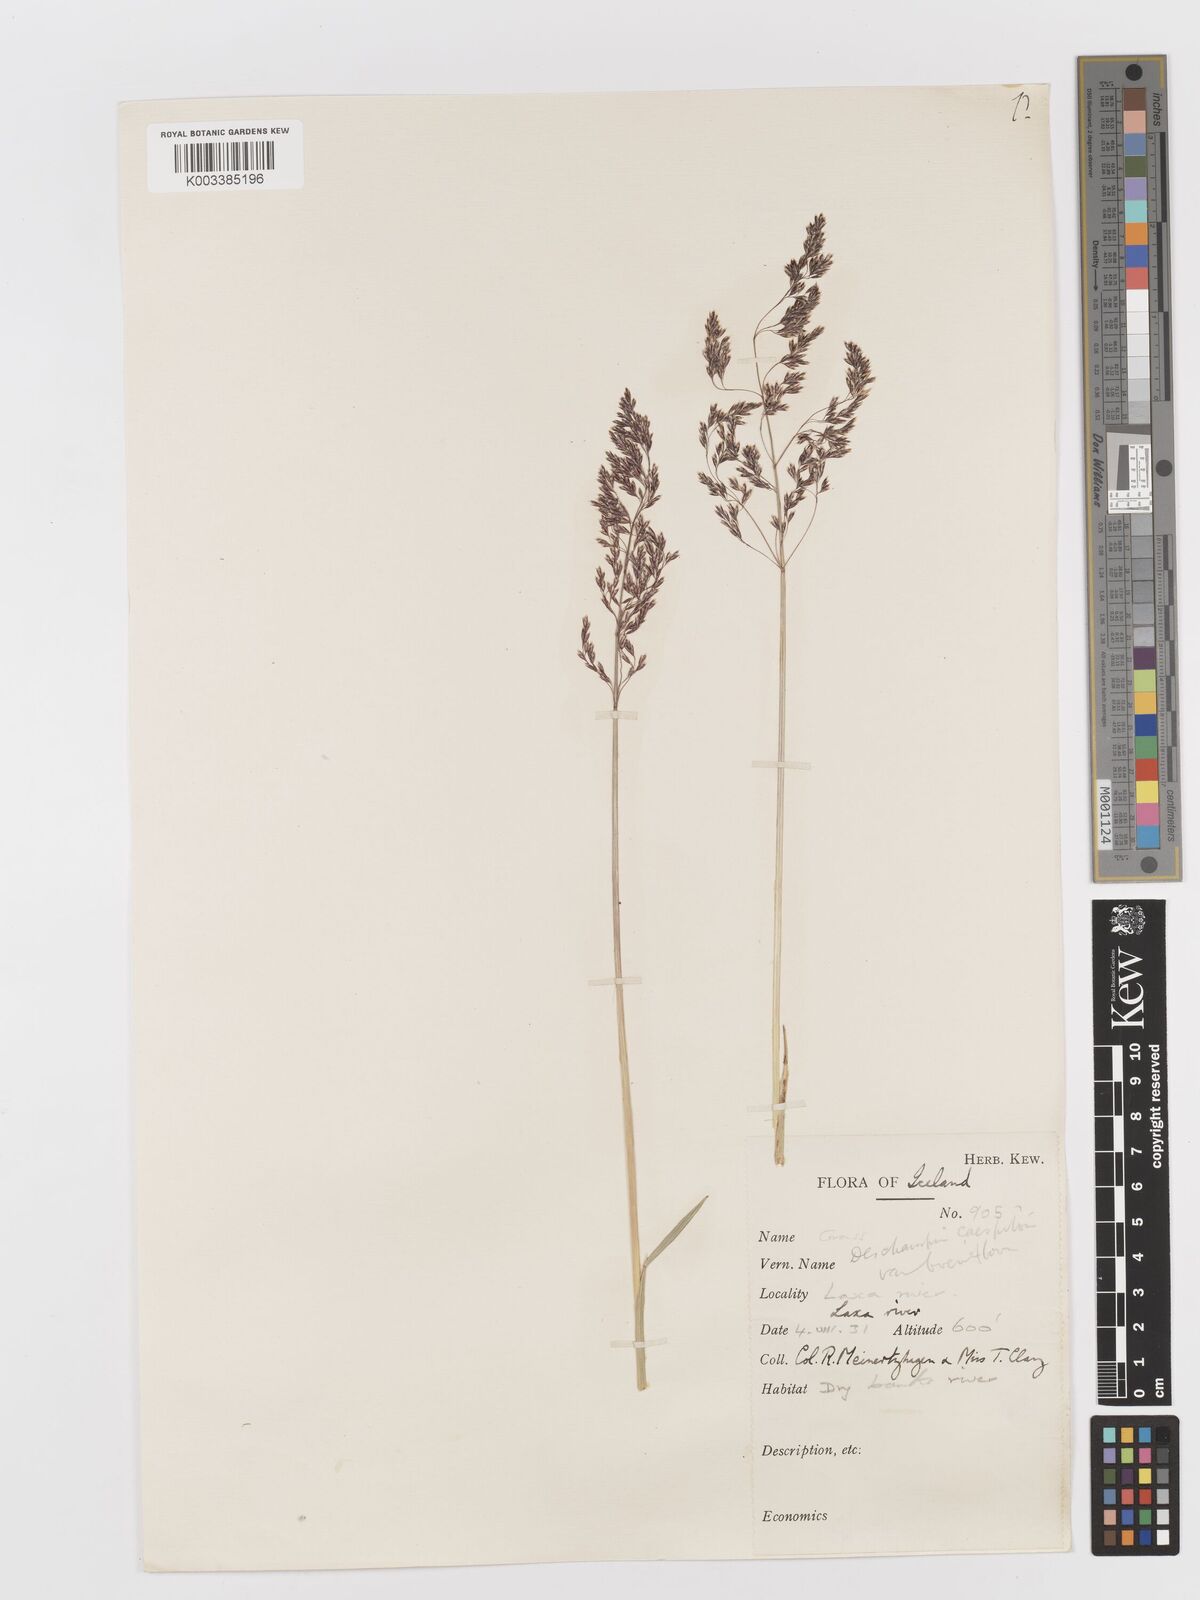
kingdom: Plantae
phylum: Tracheophyta
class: Liliopsida
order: Poales
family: Poaceae
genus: Deschampsia
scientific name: Deschampsia cespitosa
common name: Tufted hair-grass
